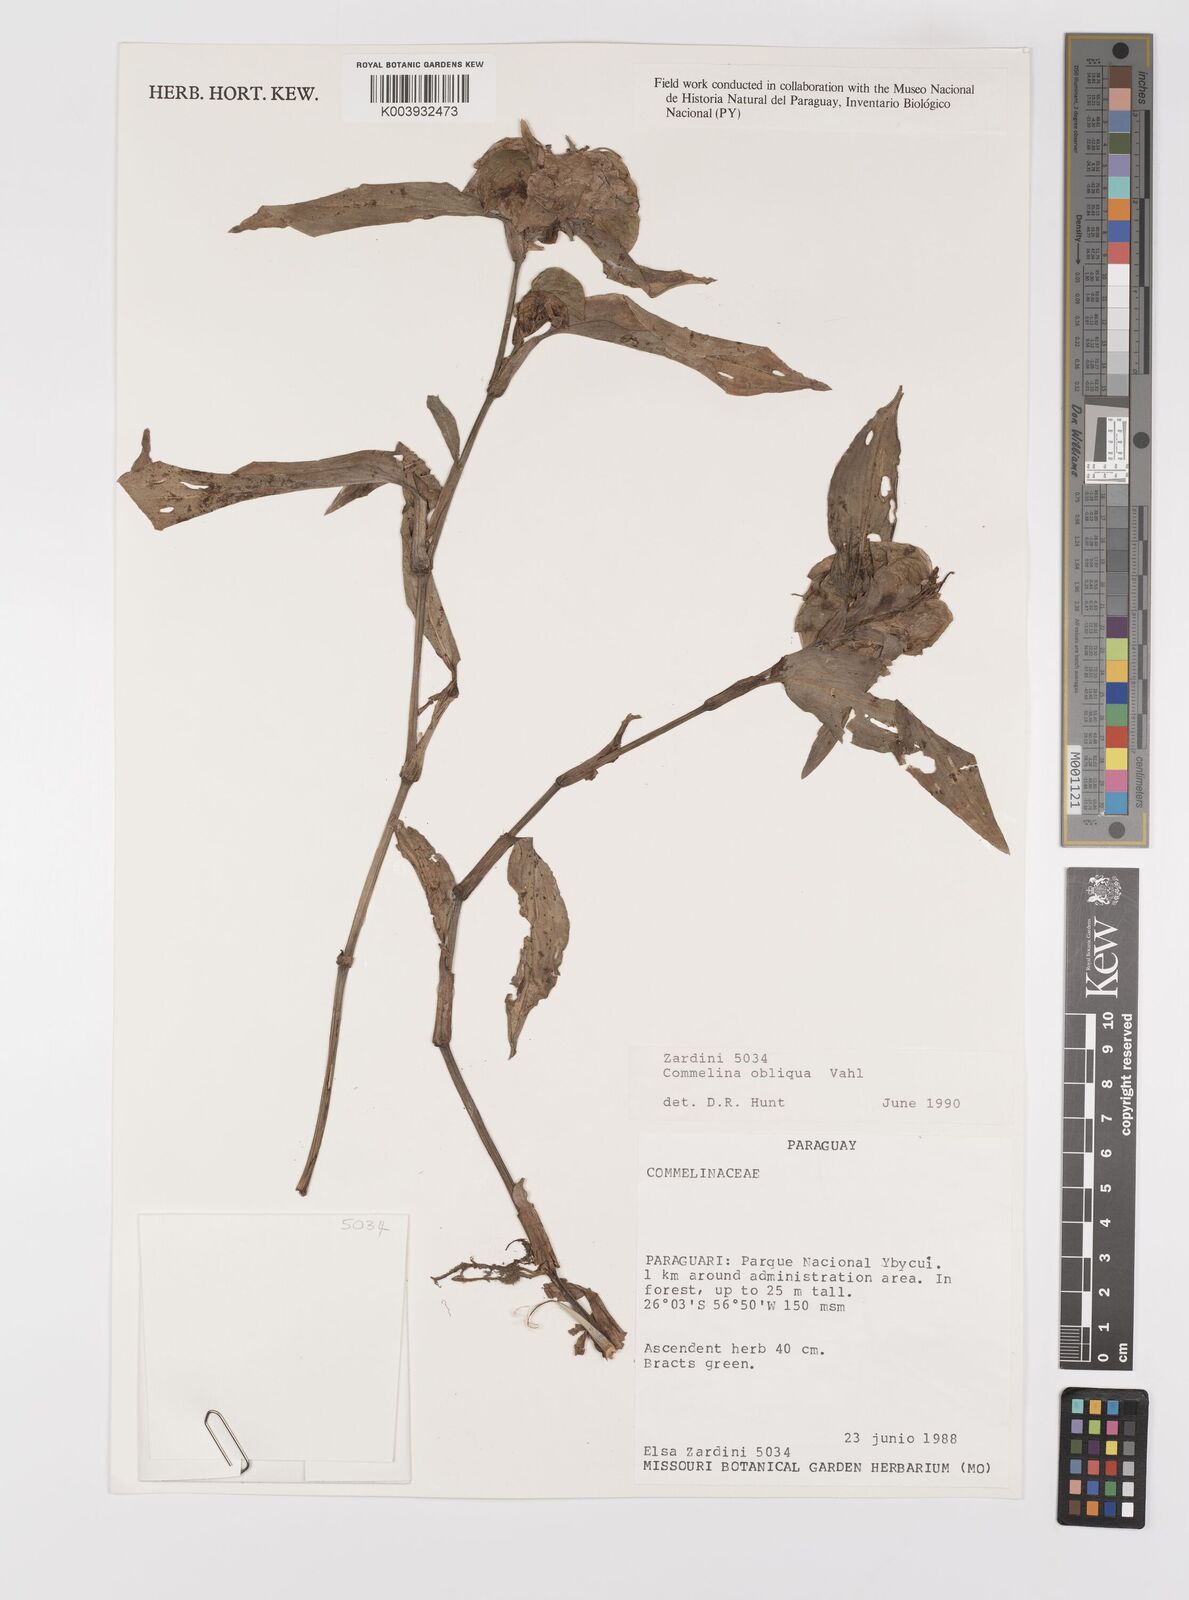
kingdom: Plantae
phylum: Tracheophyta
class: Liliopsida
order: Commelinales
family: Commelinaceae
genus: Commelina
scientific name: Commelina obliqua
